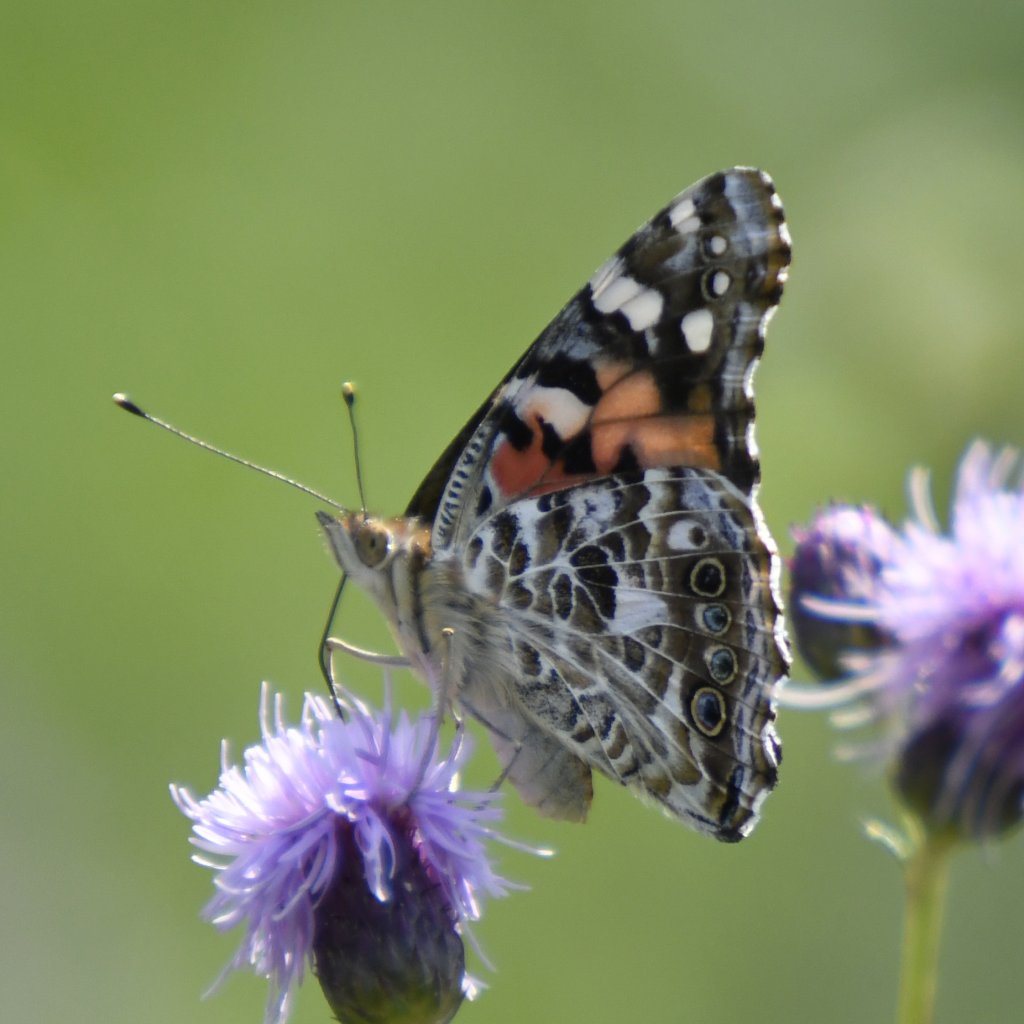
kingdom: Animalia
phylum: Arthropoda
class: Insecta
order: Lepidoptera
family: Nymphalidae
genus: Vanessa
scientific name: Vanessa cardui
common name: Painted Lady
